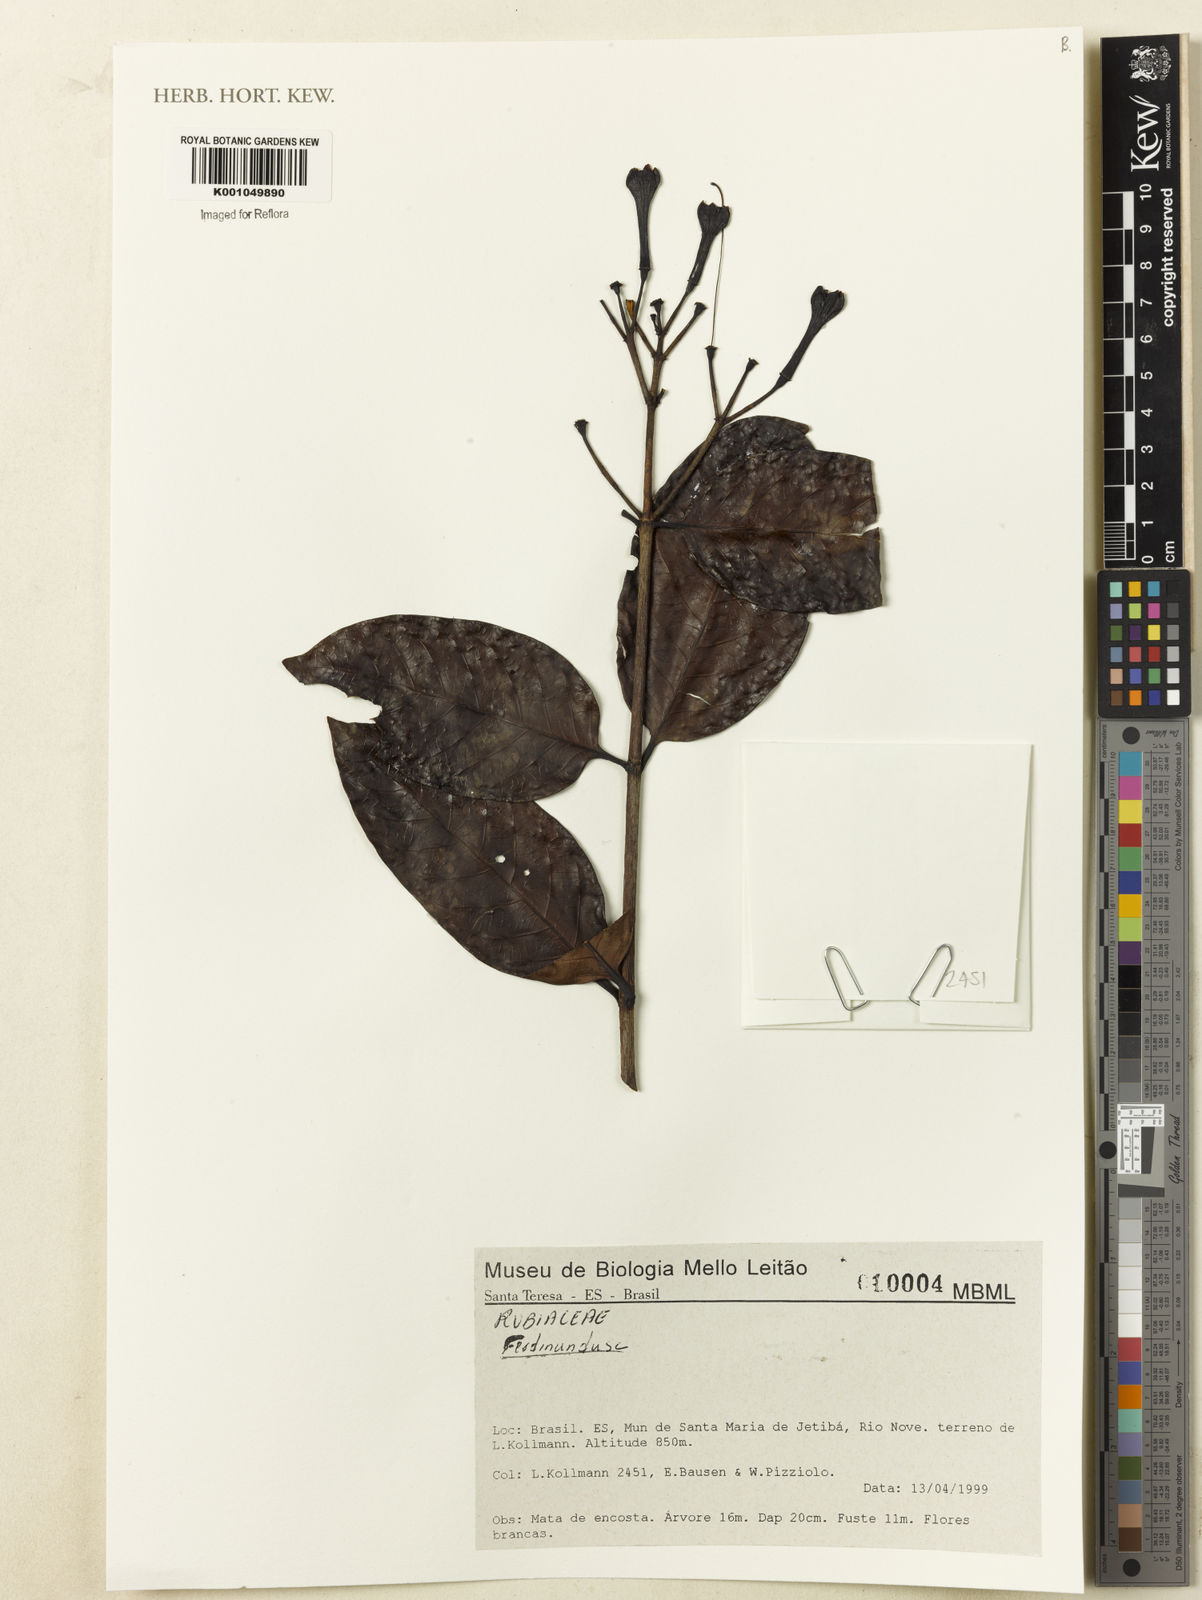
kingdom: Plantae
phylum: Tracheophyta
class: Magnoliopsida
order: Gentianales
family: Rubiaceae
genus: Ferdinandusa
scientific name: Ferdinandusa
